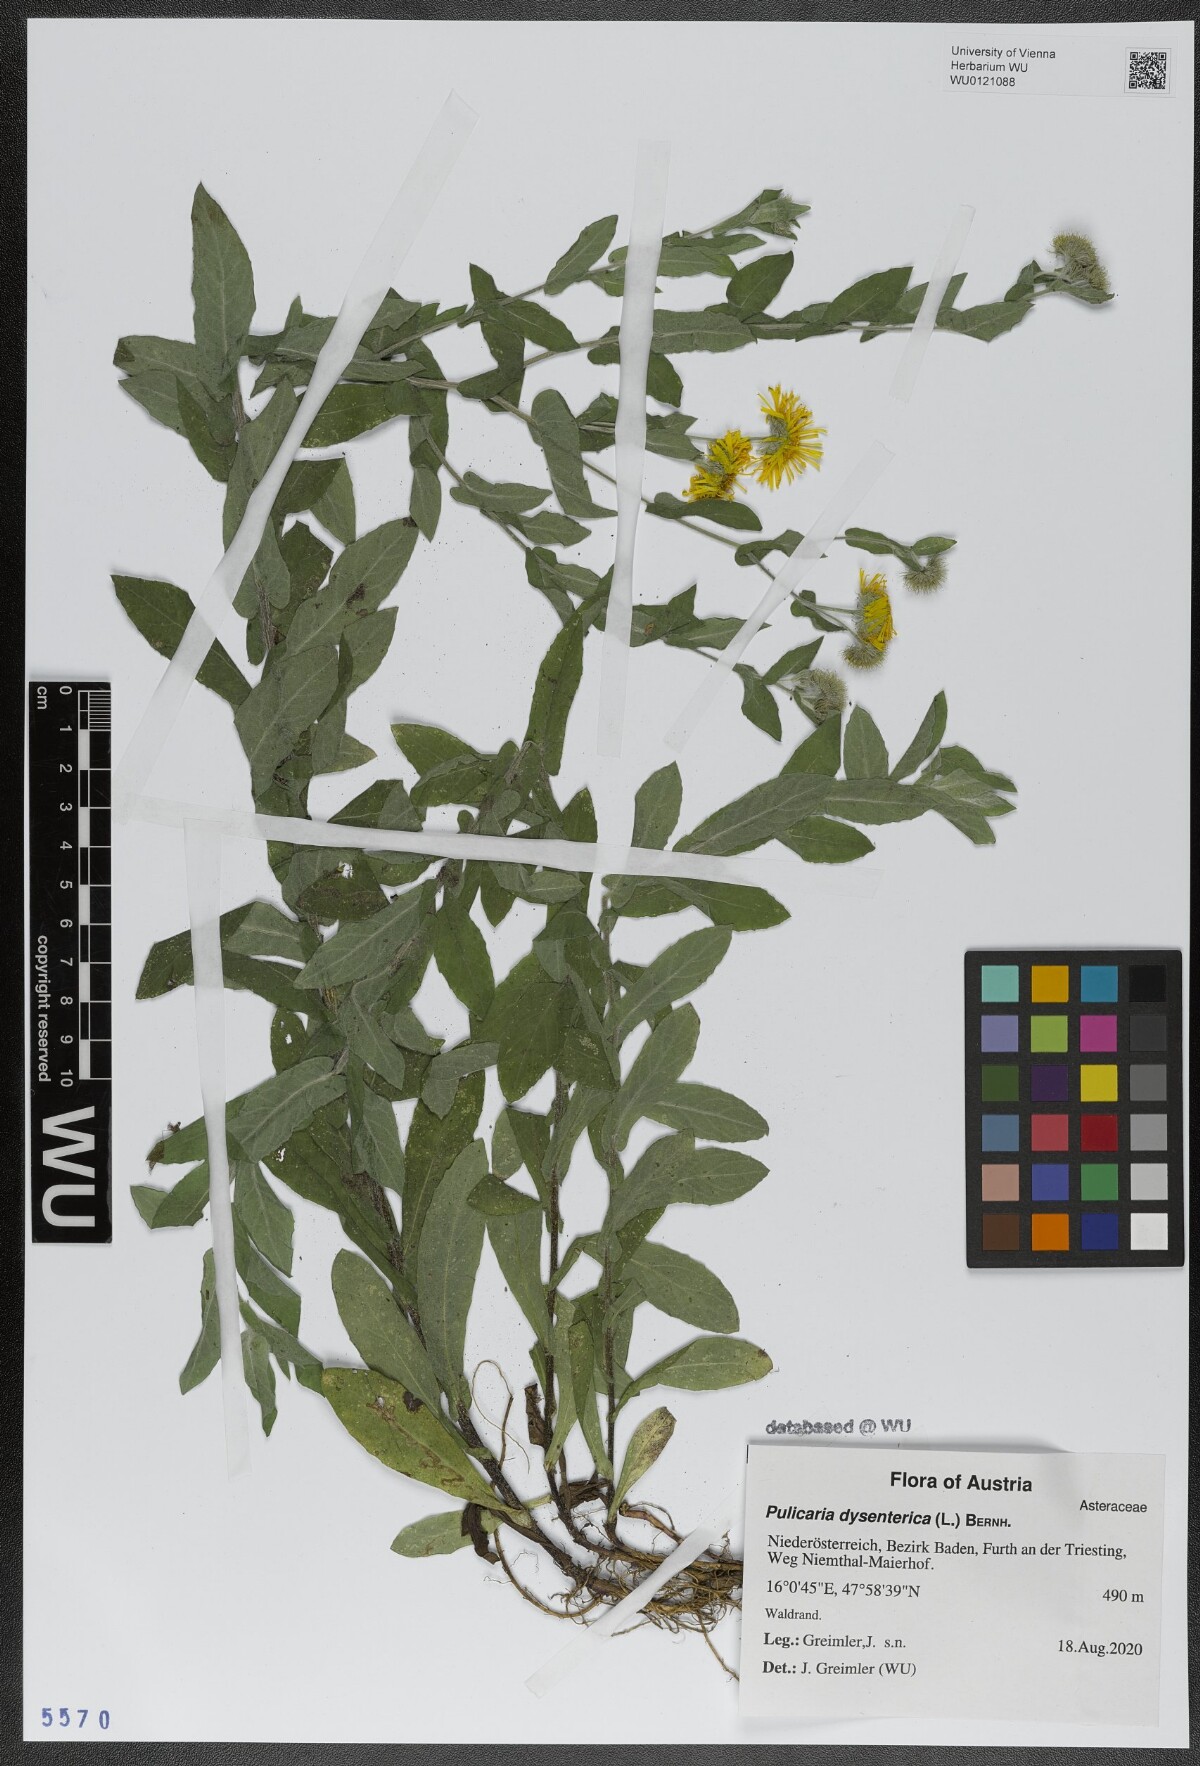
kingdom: Plantae
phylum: Tracheophyta
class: Magnoliopsida
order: Asterales
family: Asteraceae
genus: Pulicaria
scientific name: Pulicaria dysenterica
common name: Common fleabane
